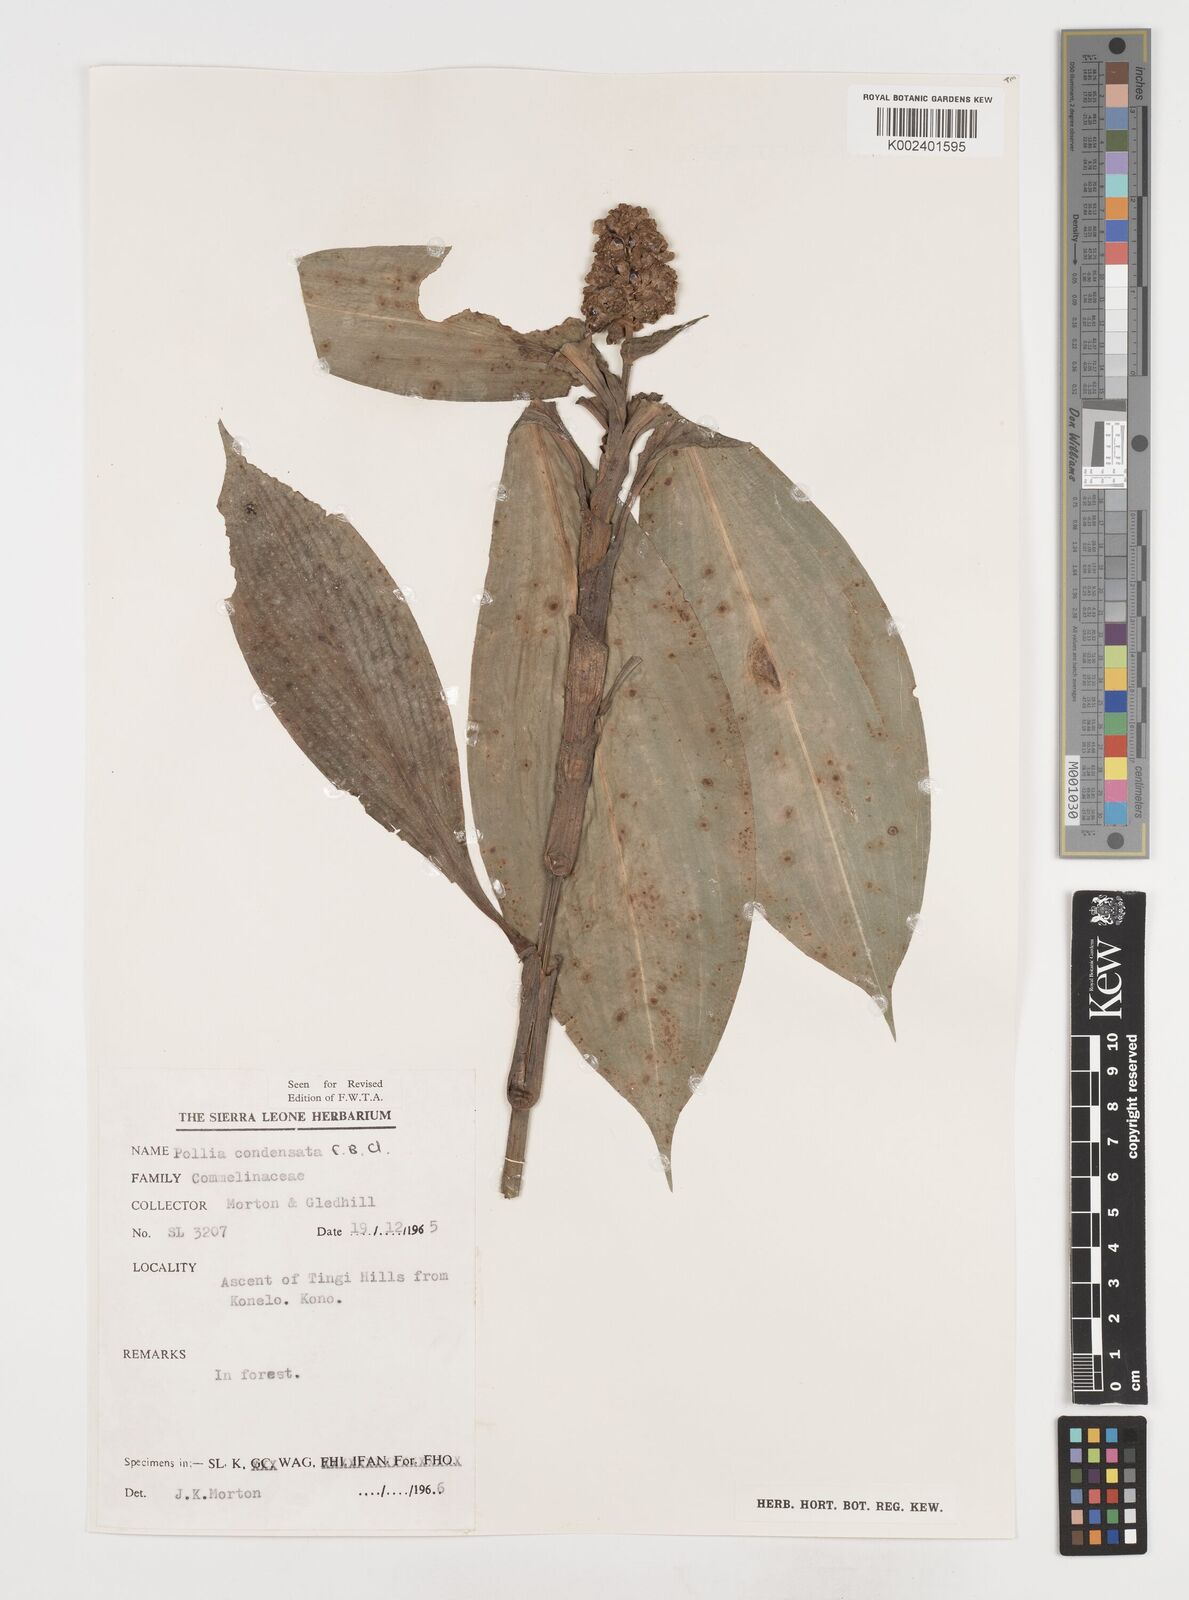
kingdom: Plantae
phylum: Tracheophyta
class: Liliopsida
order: Commelinales
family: Commelinaceae
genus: Pollia
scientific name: Pollia condensata
